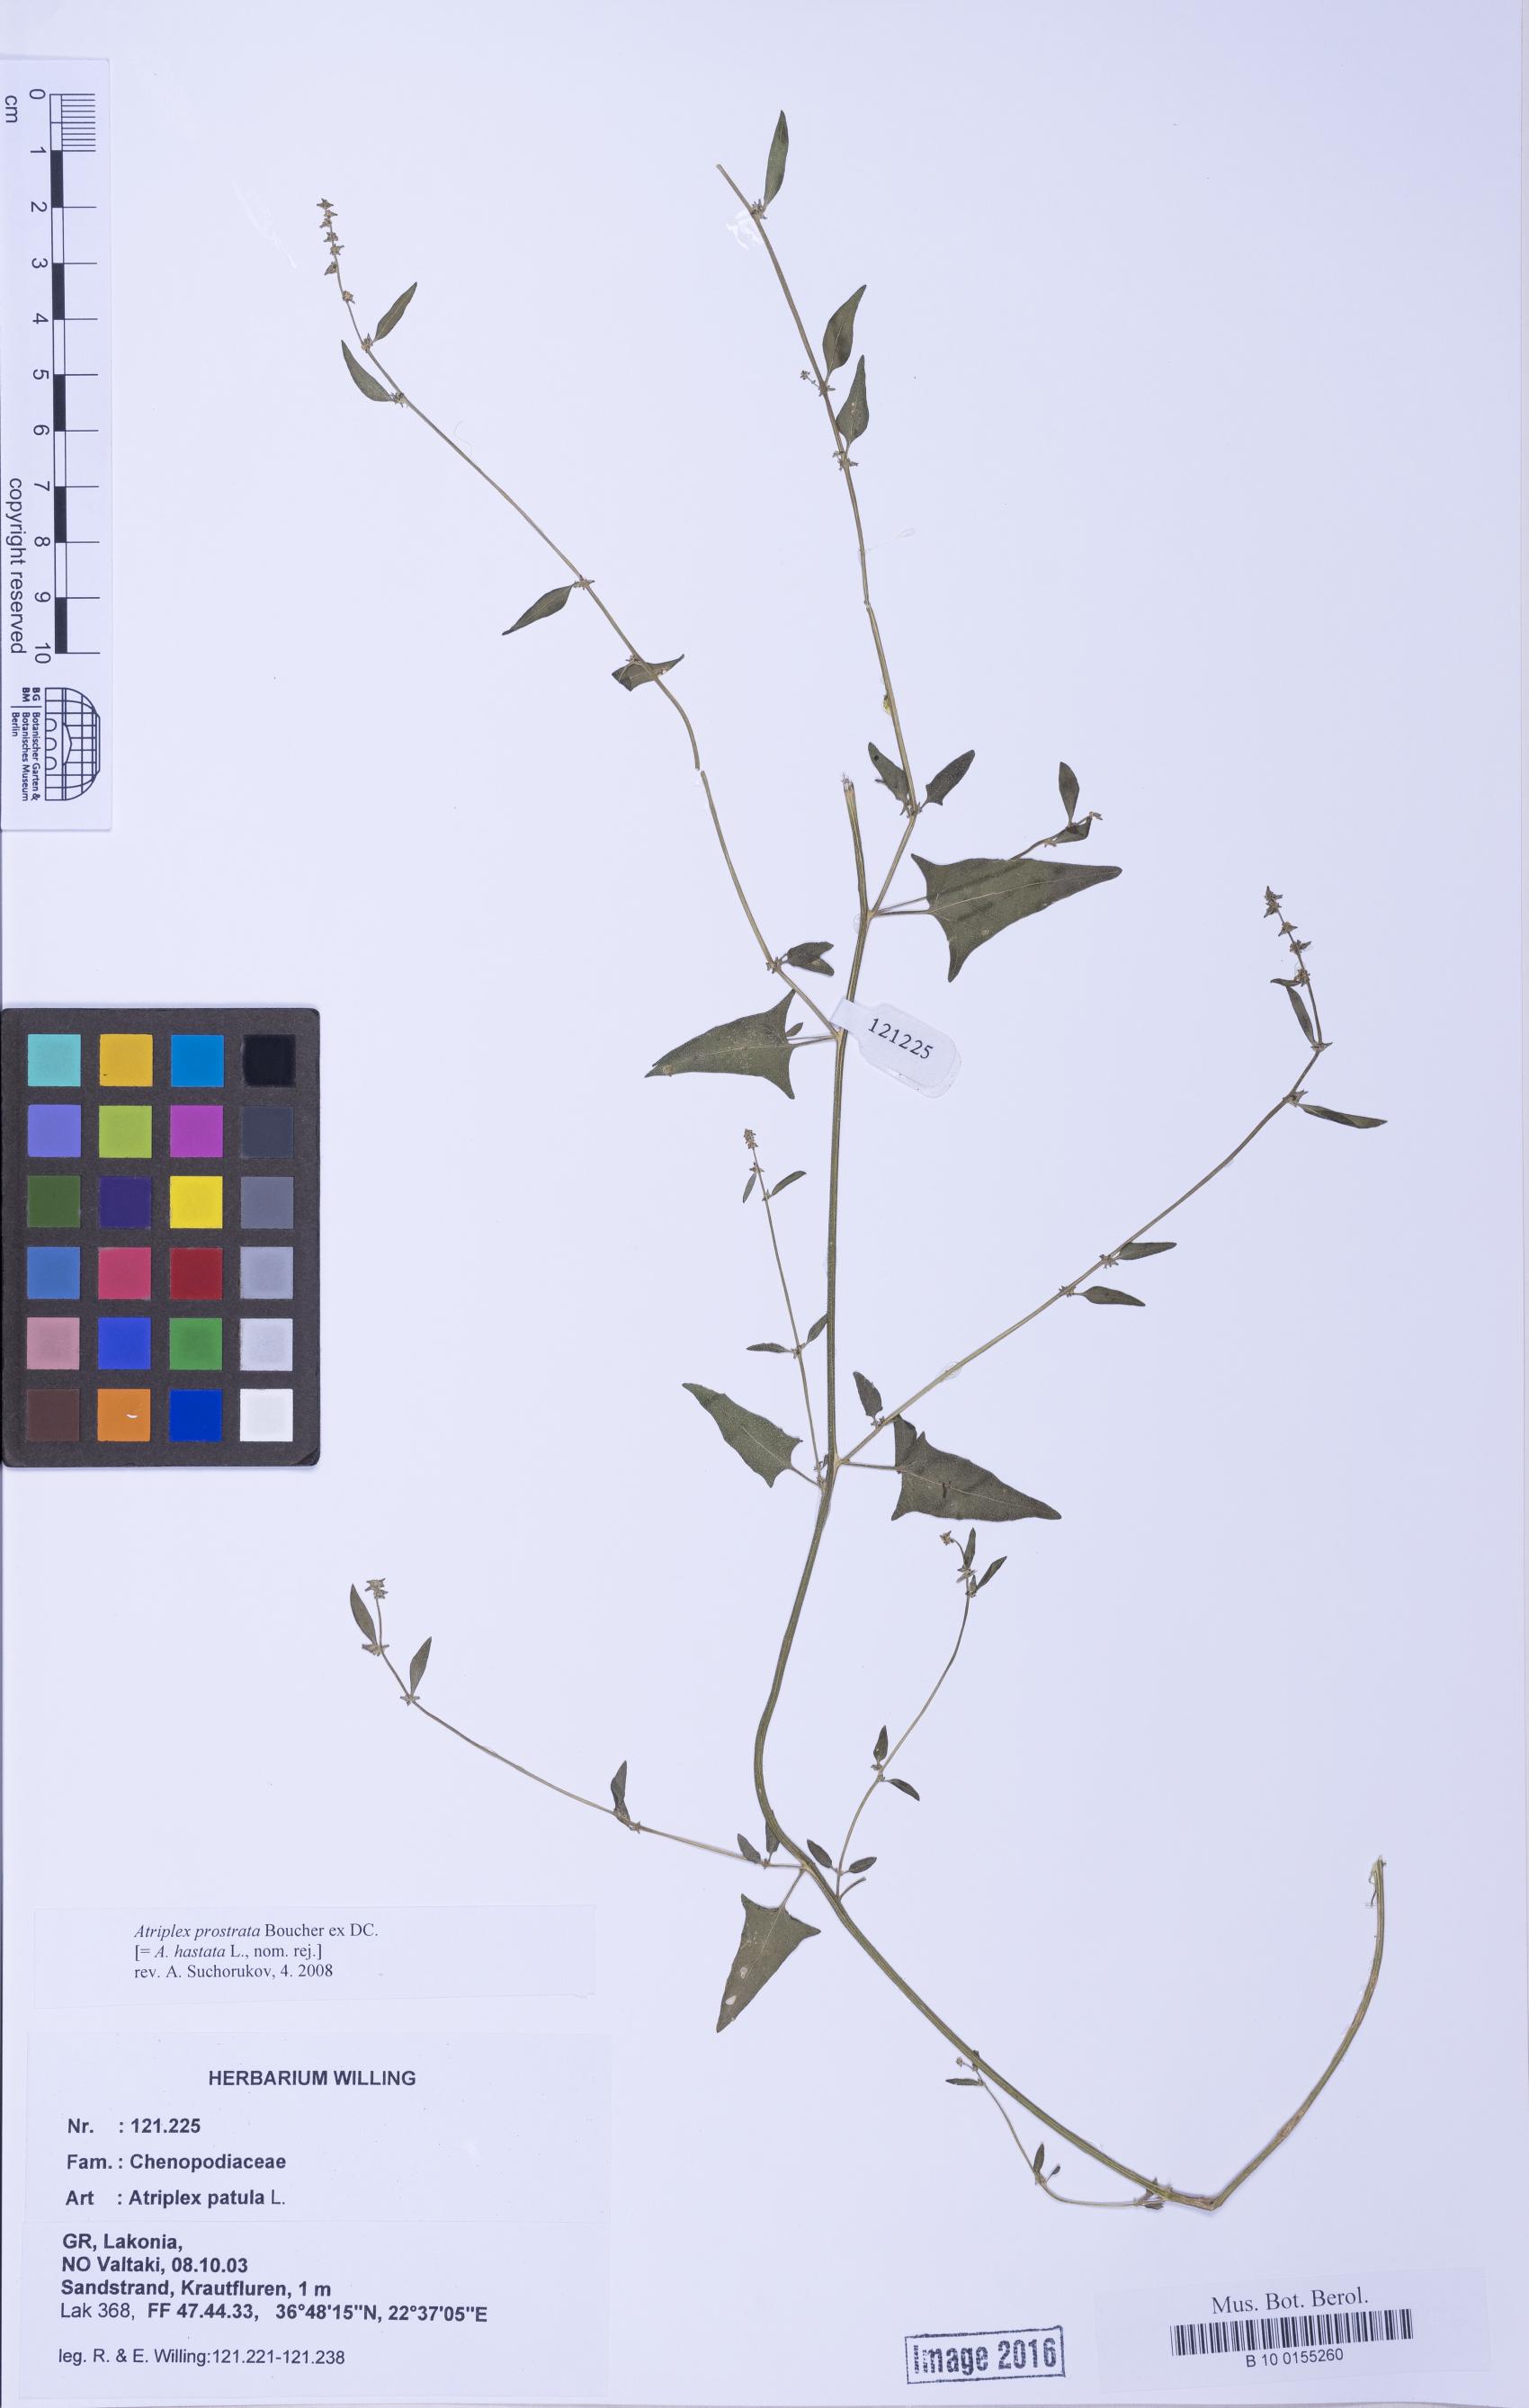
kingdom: Plantae
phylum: Tracheophyta
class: Magnoliopsida
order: Caryophyllales
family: Amaranthaceae
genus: Atriplex
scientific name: Atriplex prostrata
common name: Spear-leaved orache
